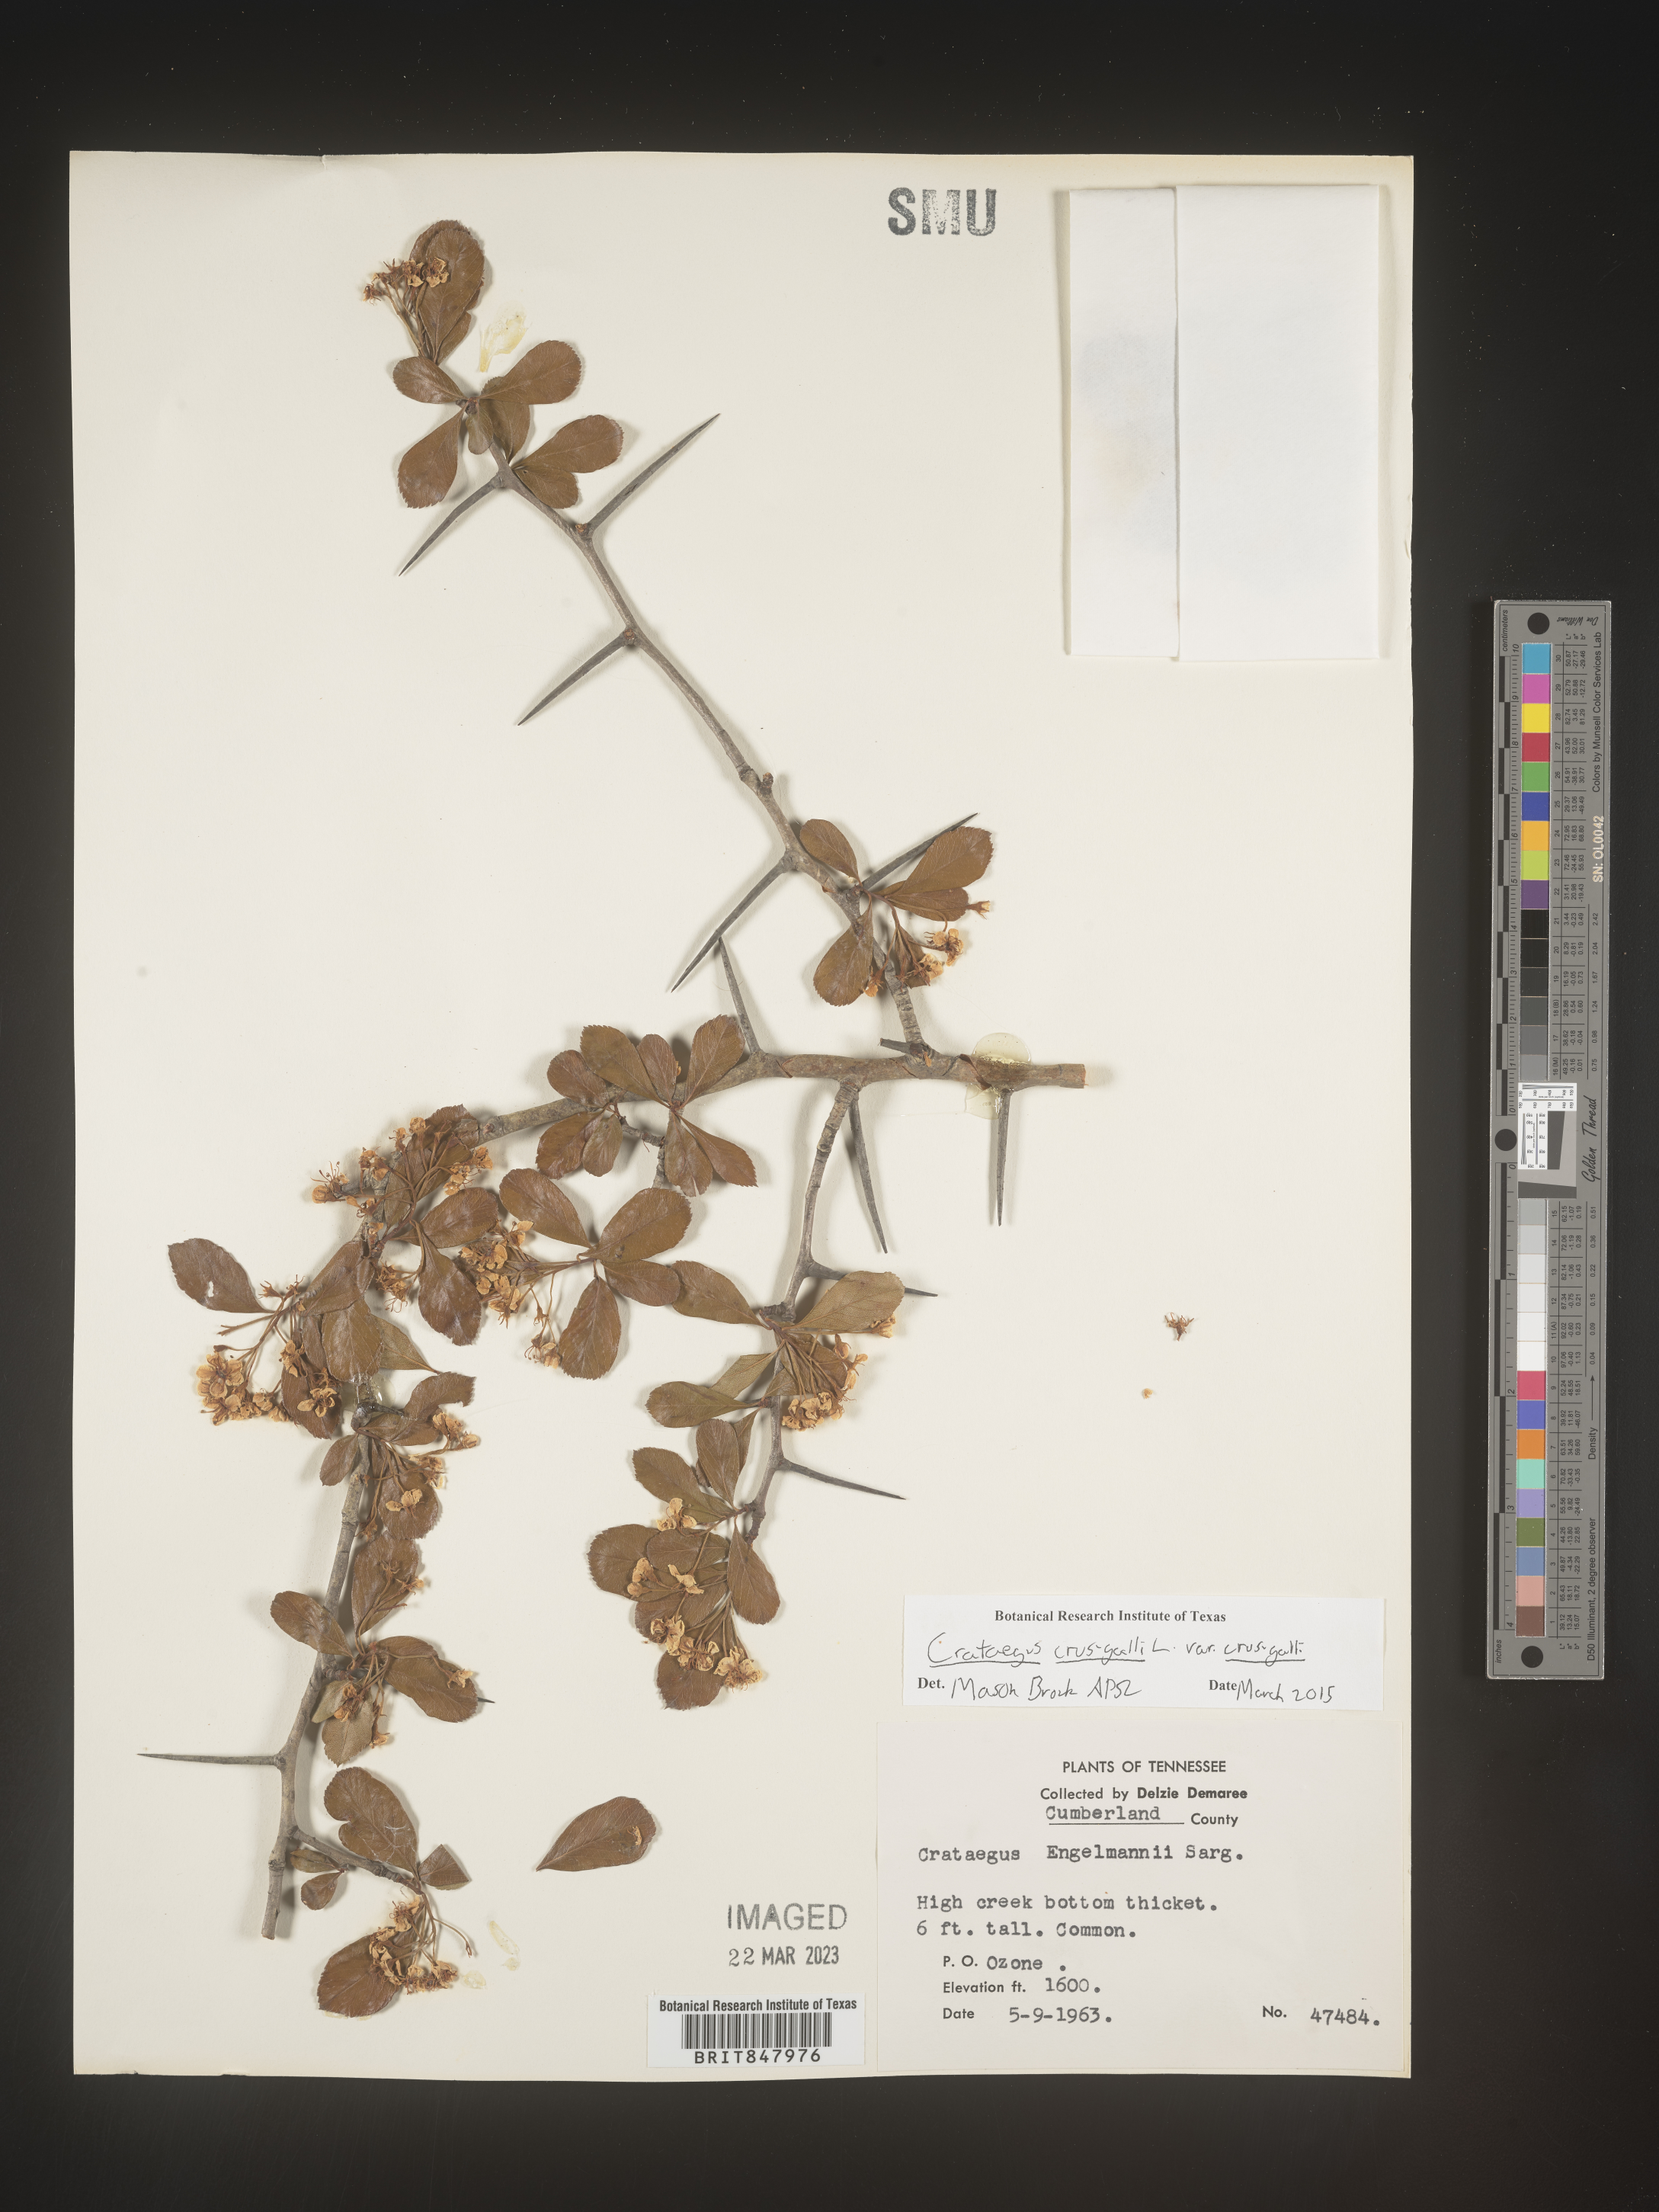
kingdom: Plantae
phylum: Tracheophyta
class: Magnoliopsida
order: Rosales
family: Rosaceae
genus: Crataegus
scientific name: Crataegus crus-galli
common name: Cockspurthorn
